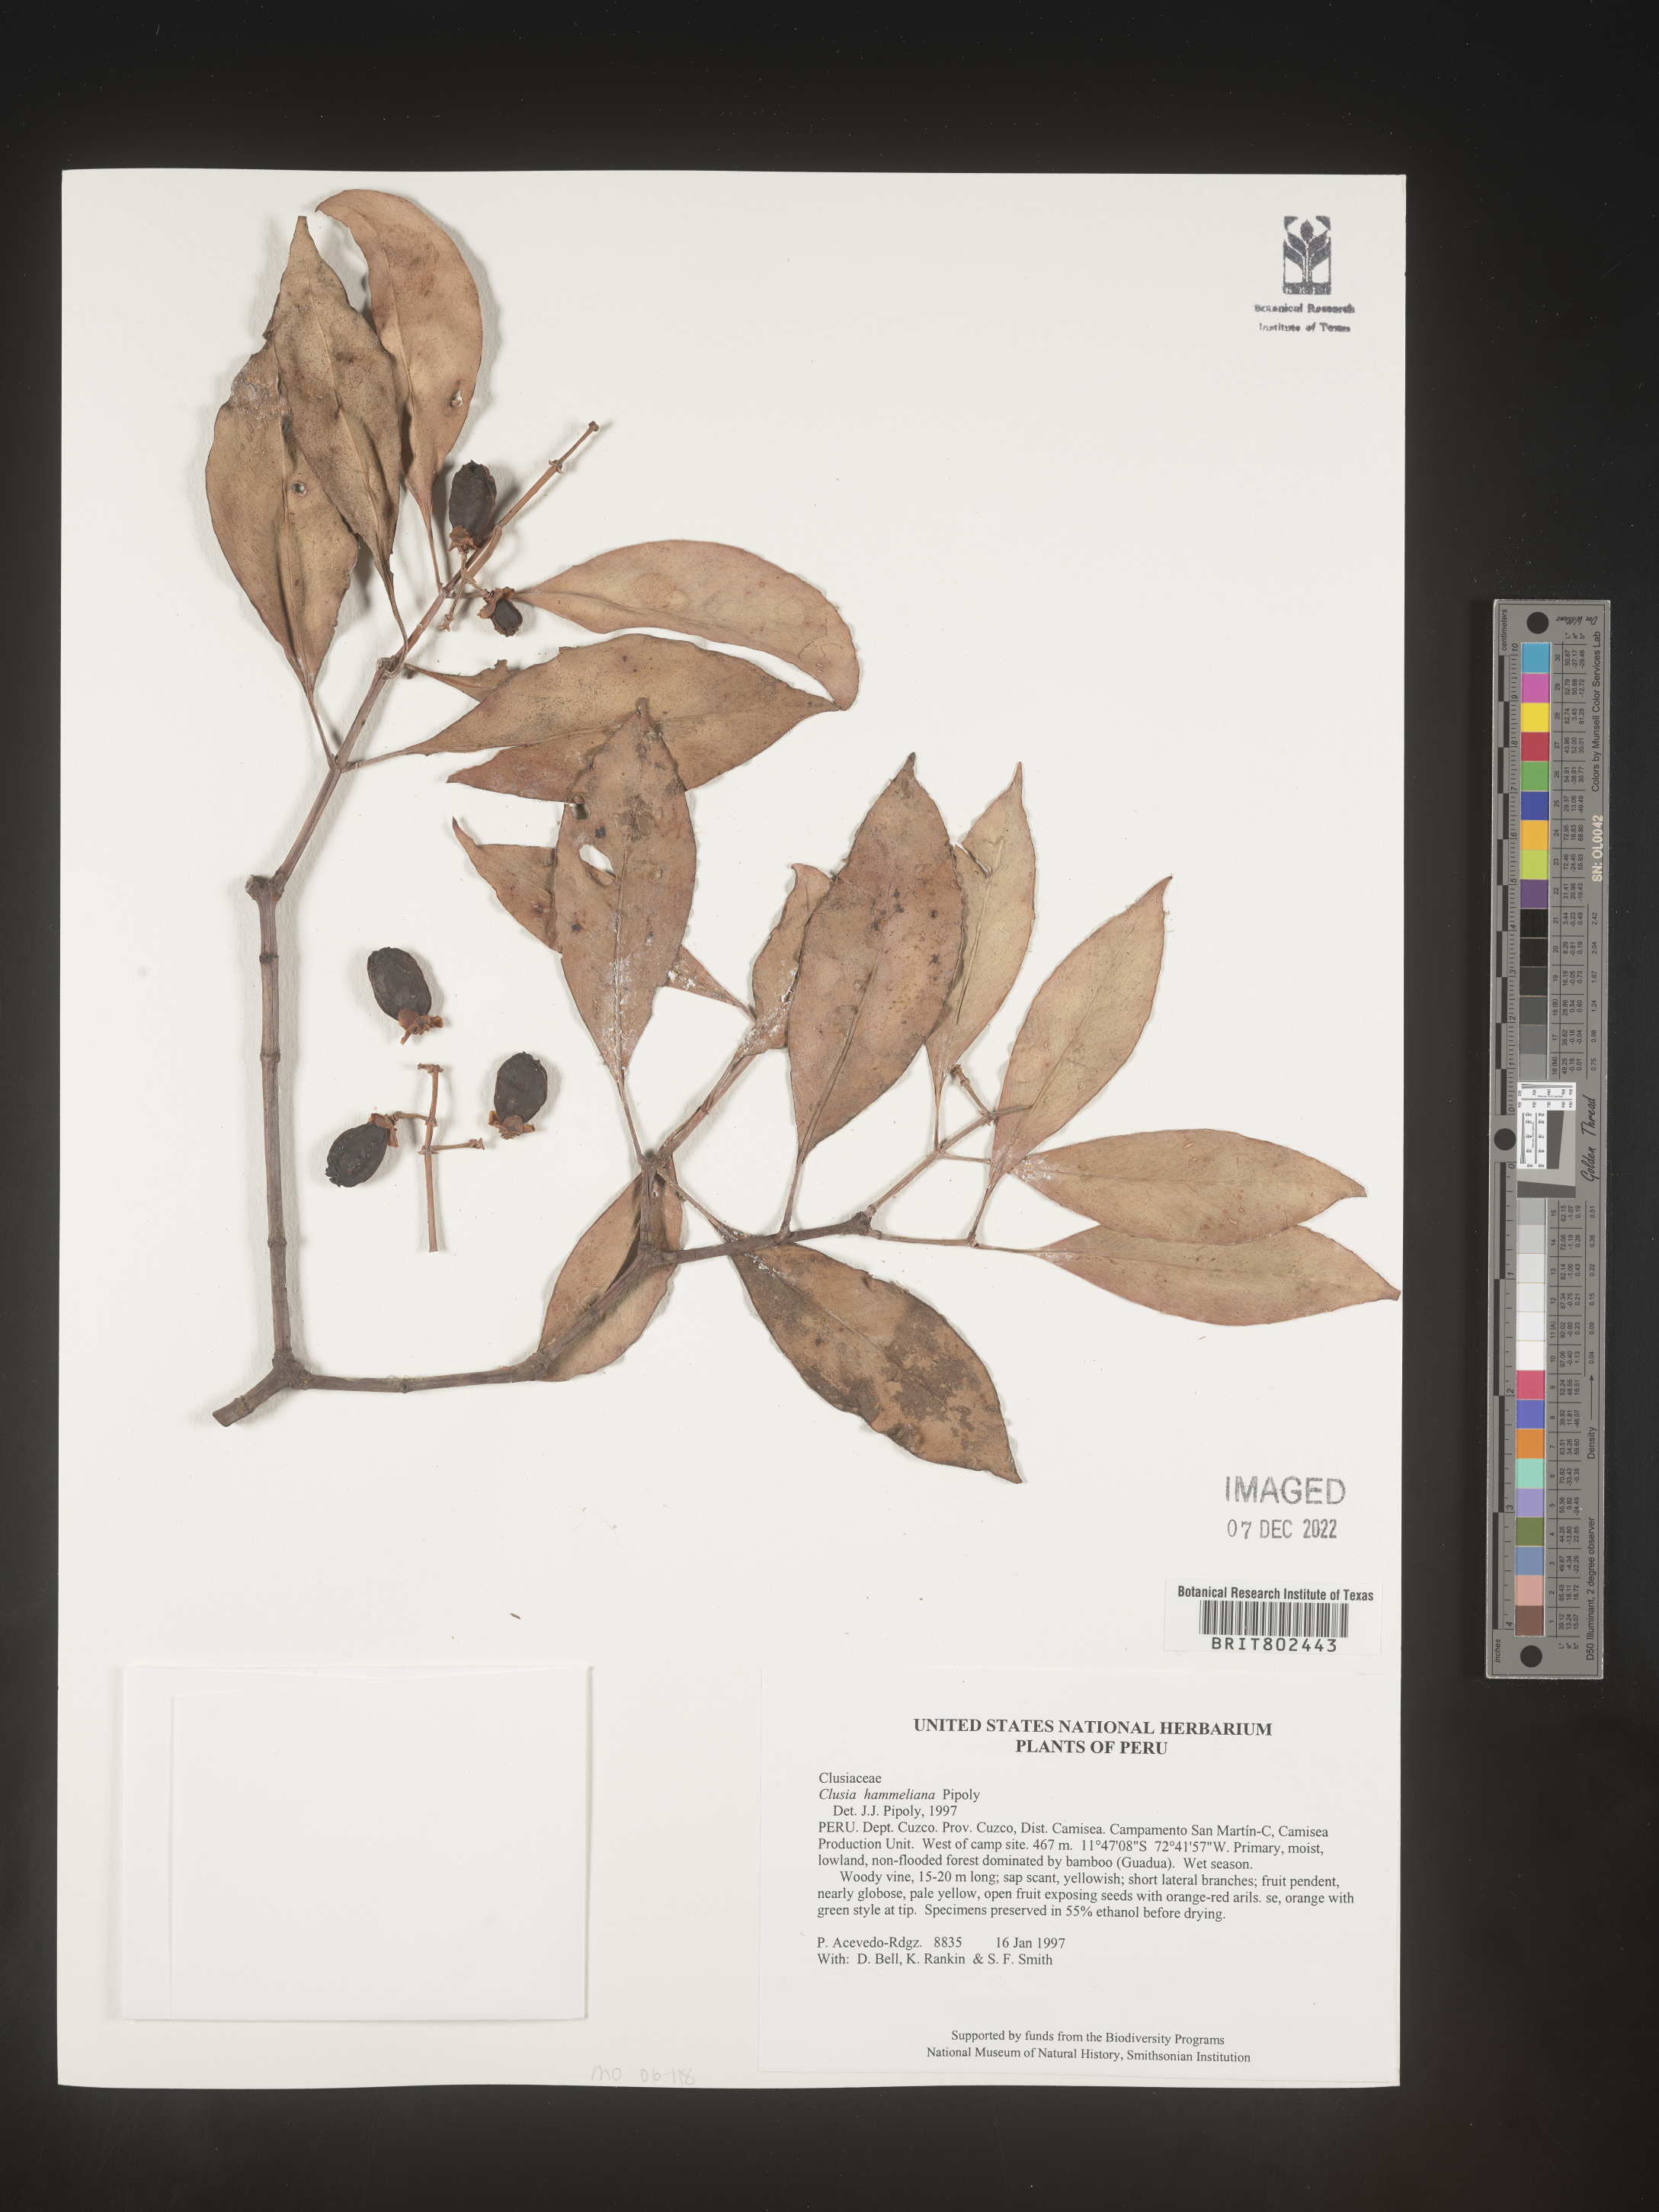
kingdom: Plantae
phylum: Tracheophyta
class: Magnoliopsida
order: Malpighiales
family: Clusiaceae
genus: Clusia
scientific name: Clusia hammeliana
